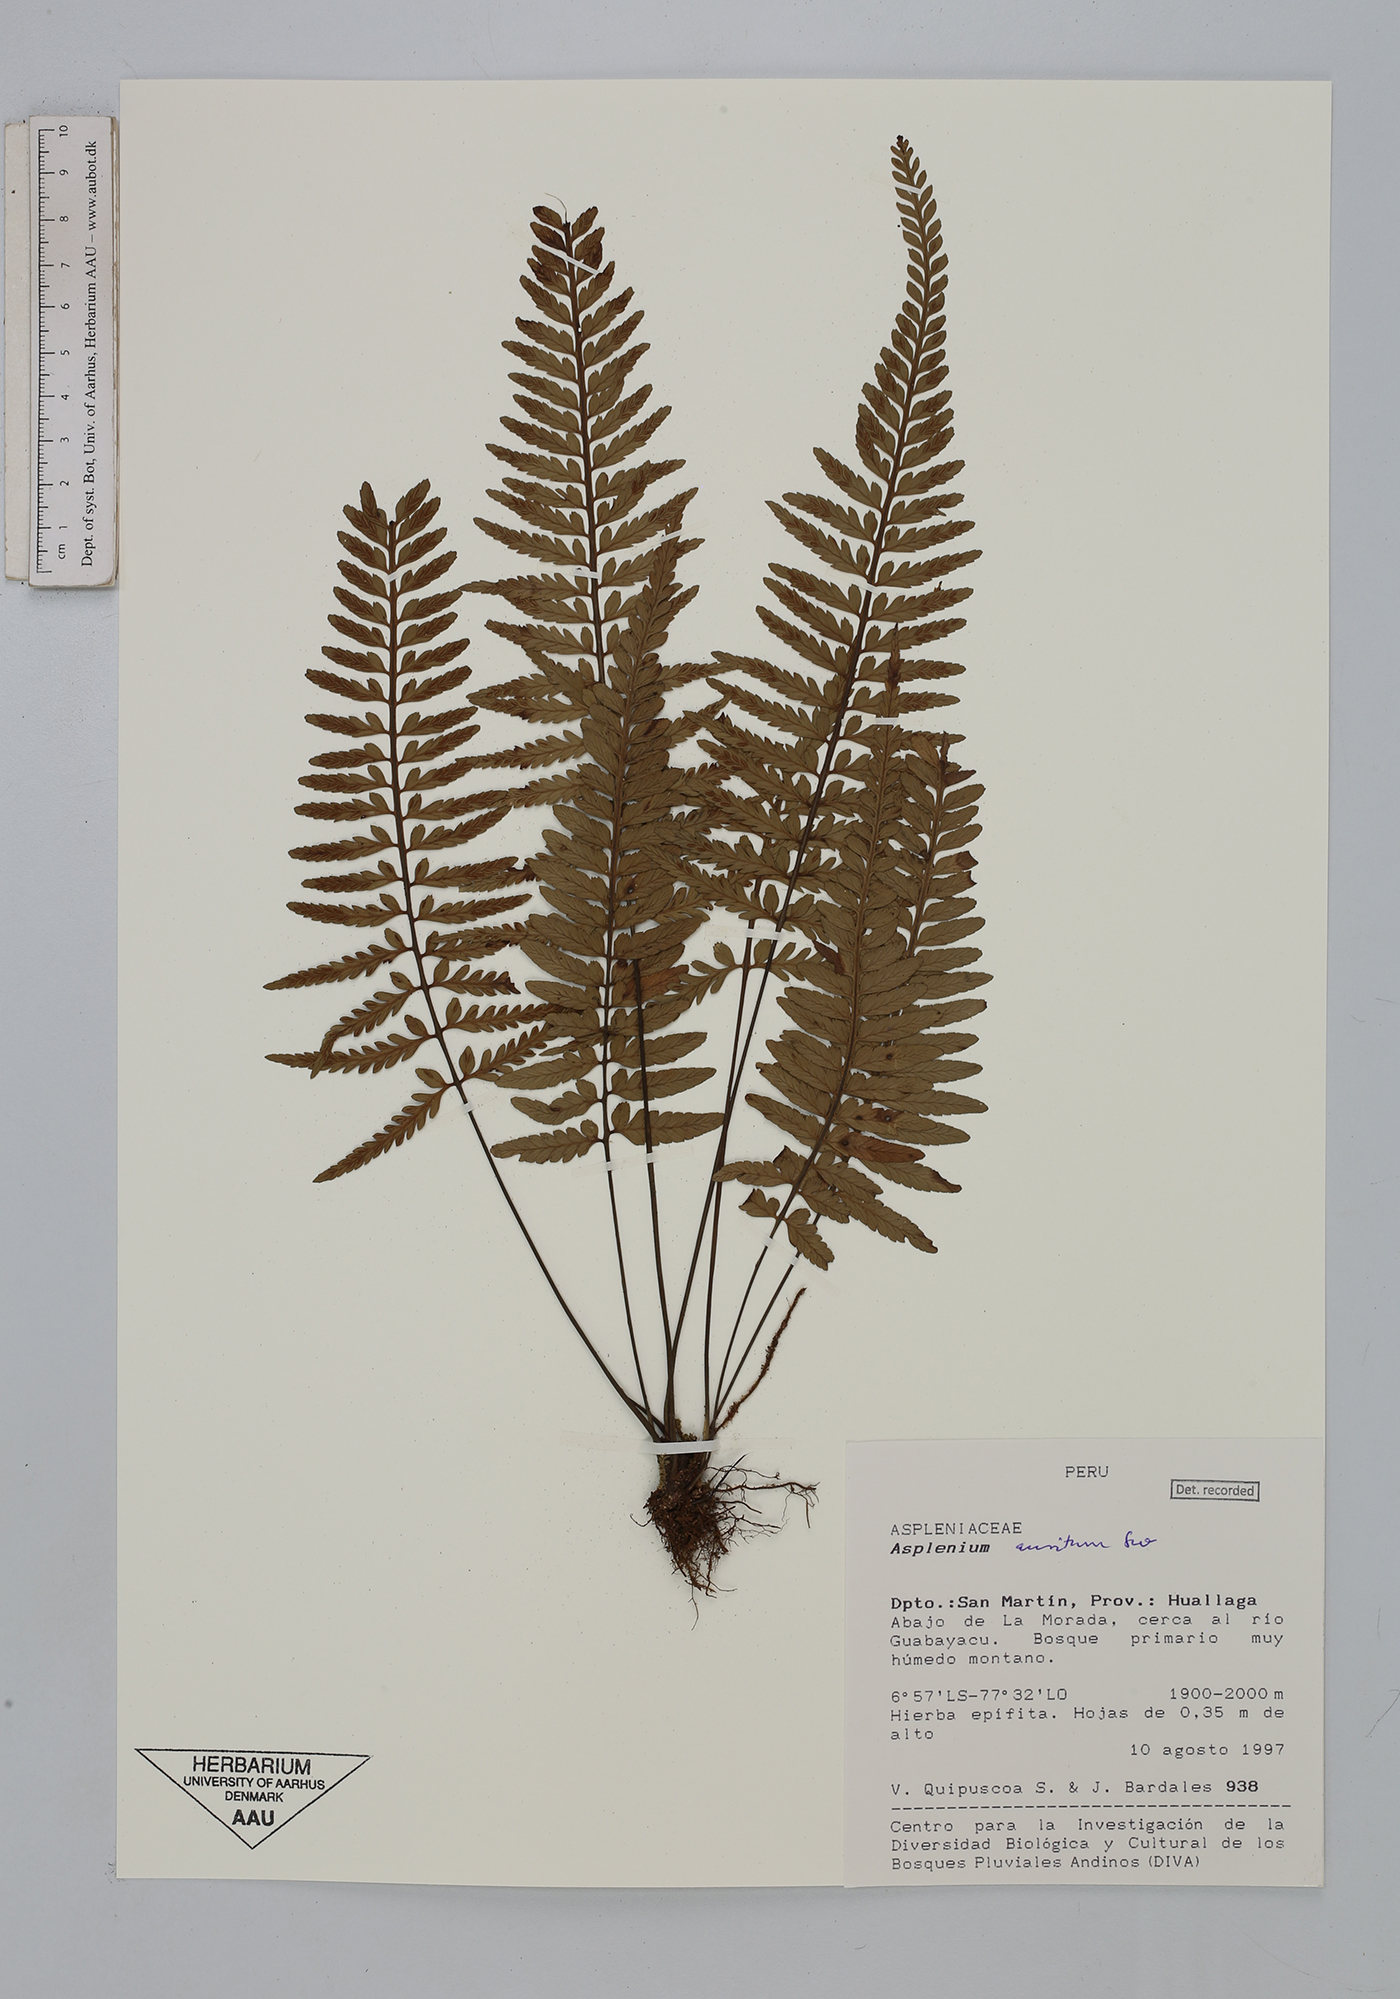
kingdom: Plantae
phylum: Tracheophyta
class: Polypodiopsida
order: Polypodiales
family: Aspleniaceae
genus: Asplenium
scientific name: Asplenium auritum
